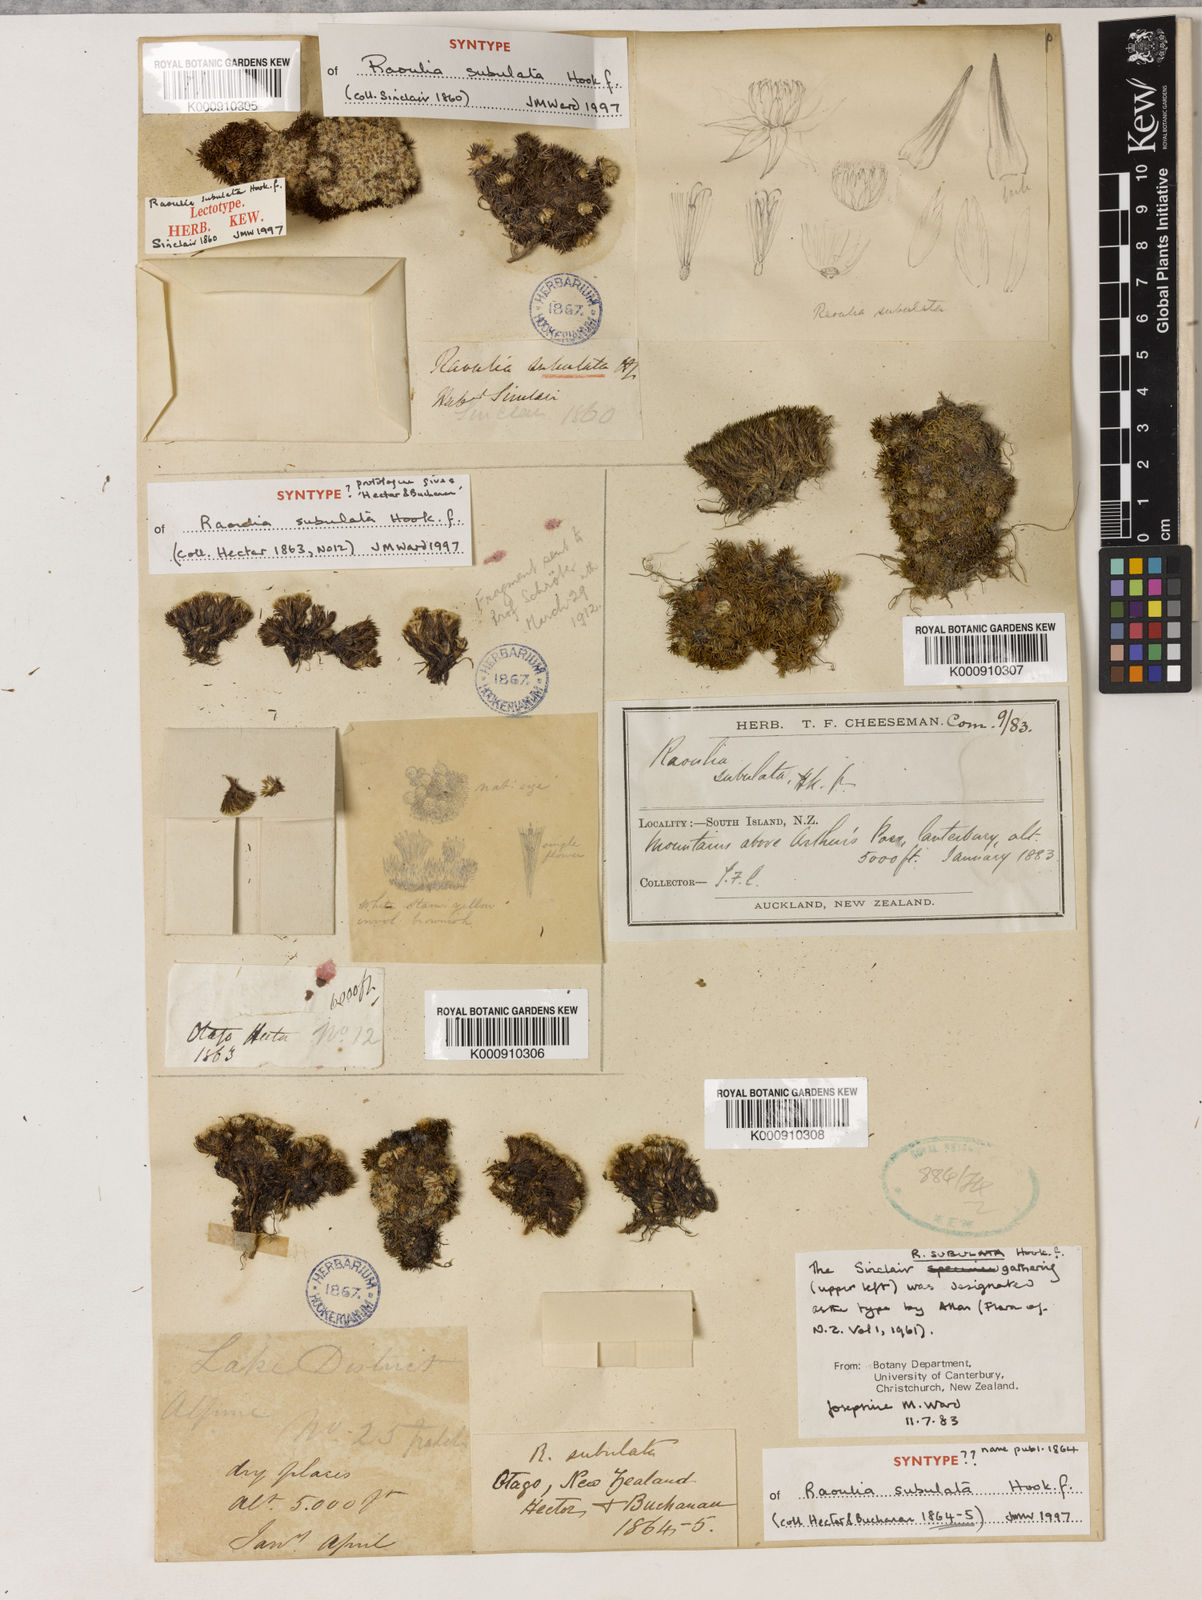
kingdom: Plantae
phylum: Tracheophyta
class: Magnoliopsida
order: Asterales
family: Asteraceae
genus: Raoulia
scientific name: Raoulia subulata
